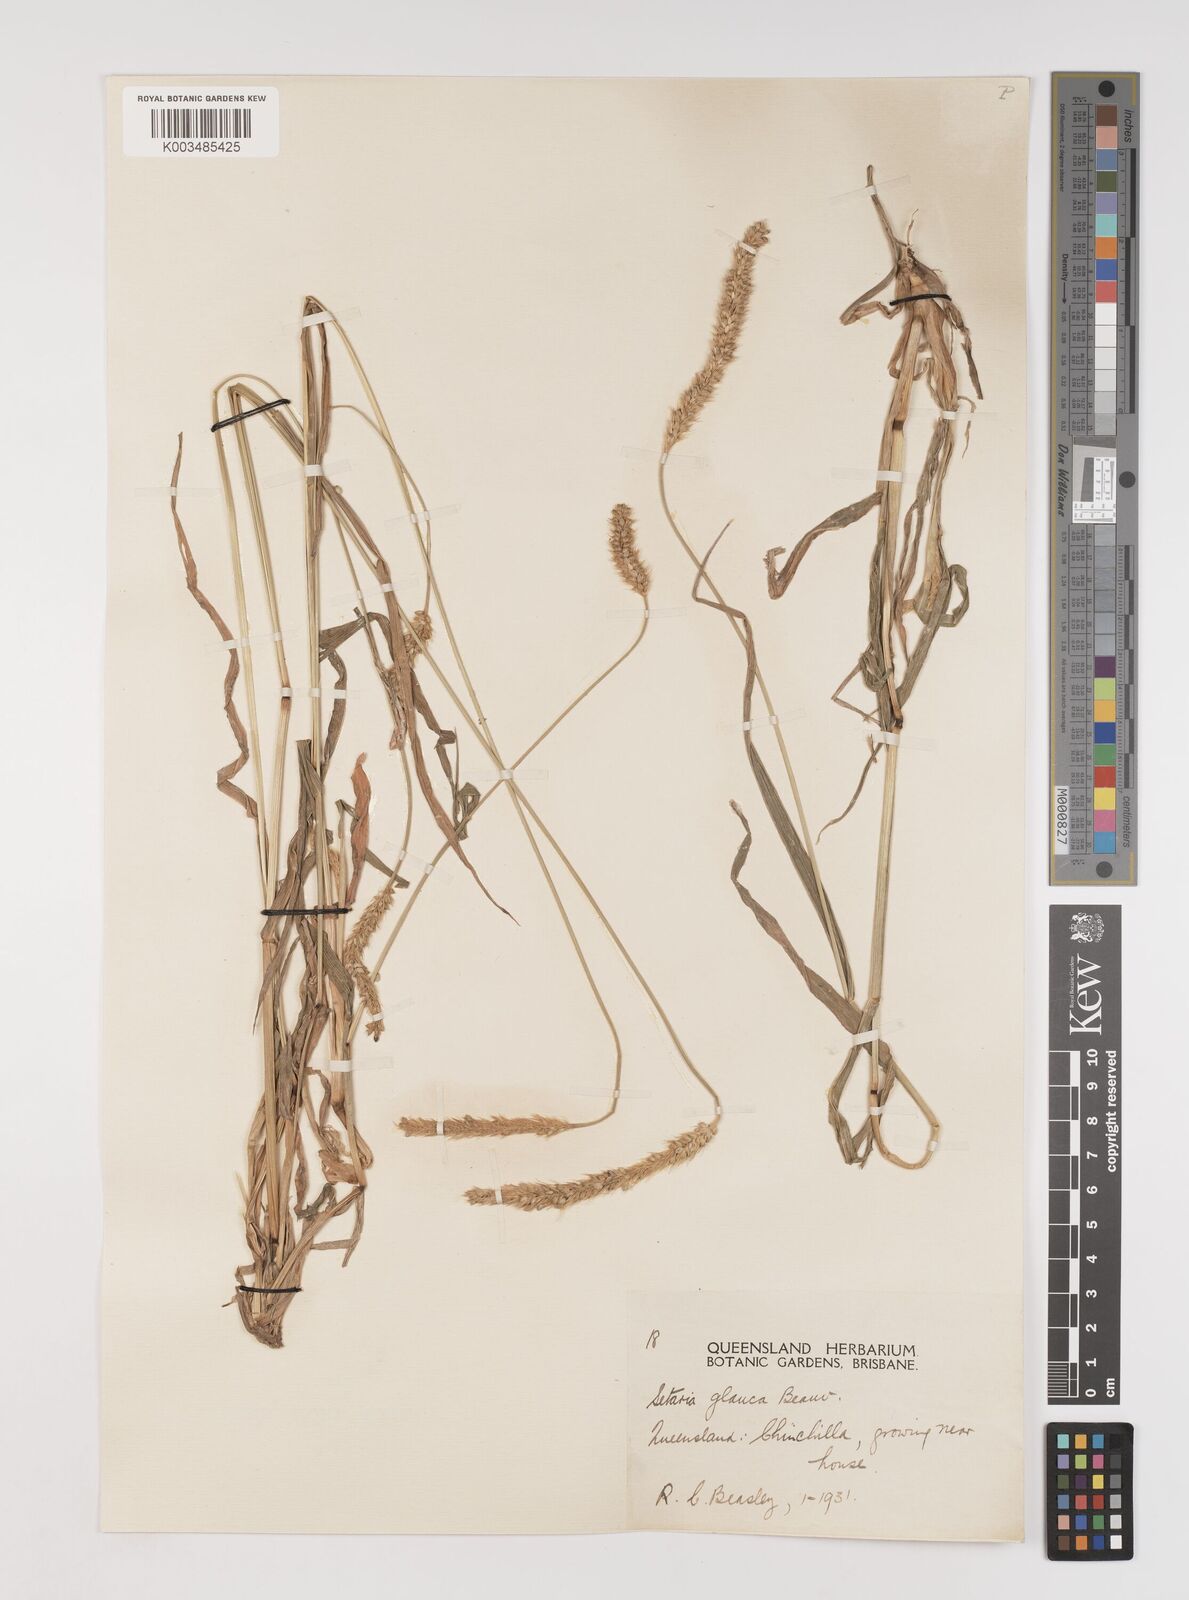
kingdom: Plantae
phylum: Tracheophyta
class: Liliopsida
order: Poales
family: Poaceae
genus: Setaria
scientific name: Setaria pumila
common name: Yellow bristle-grass
